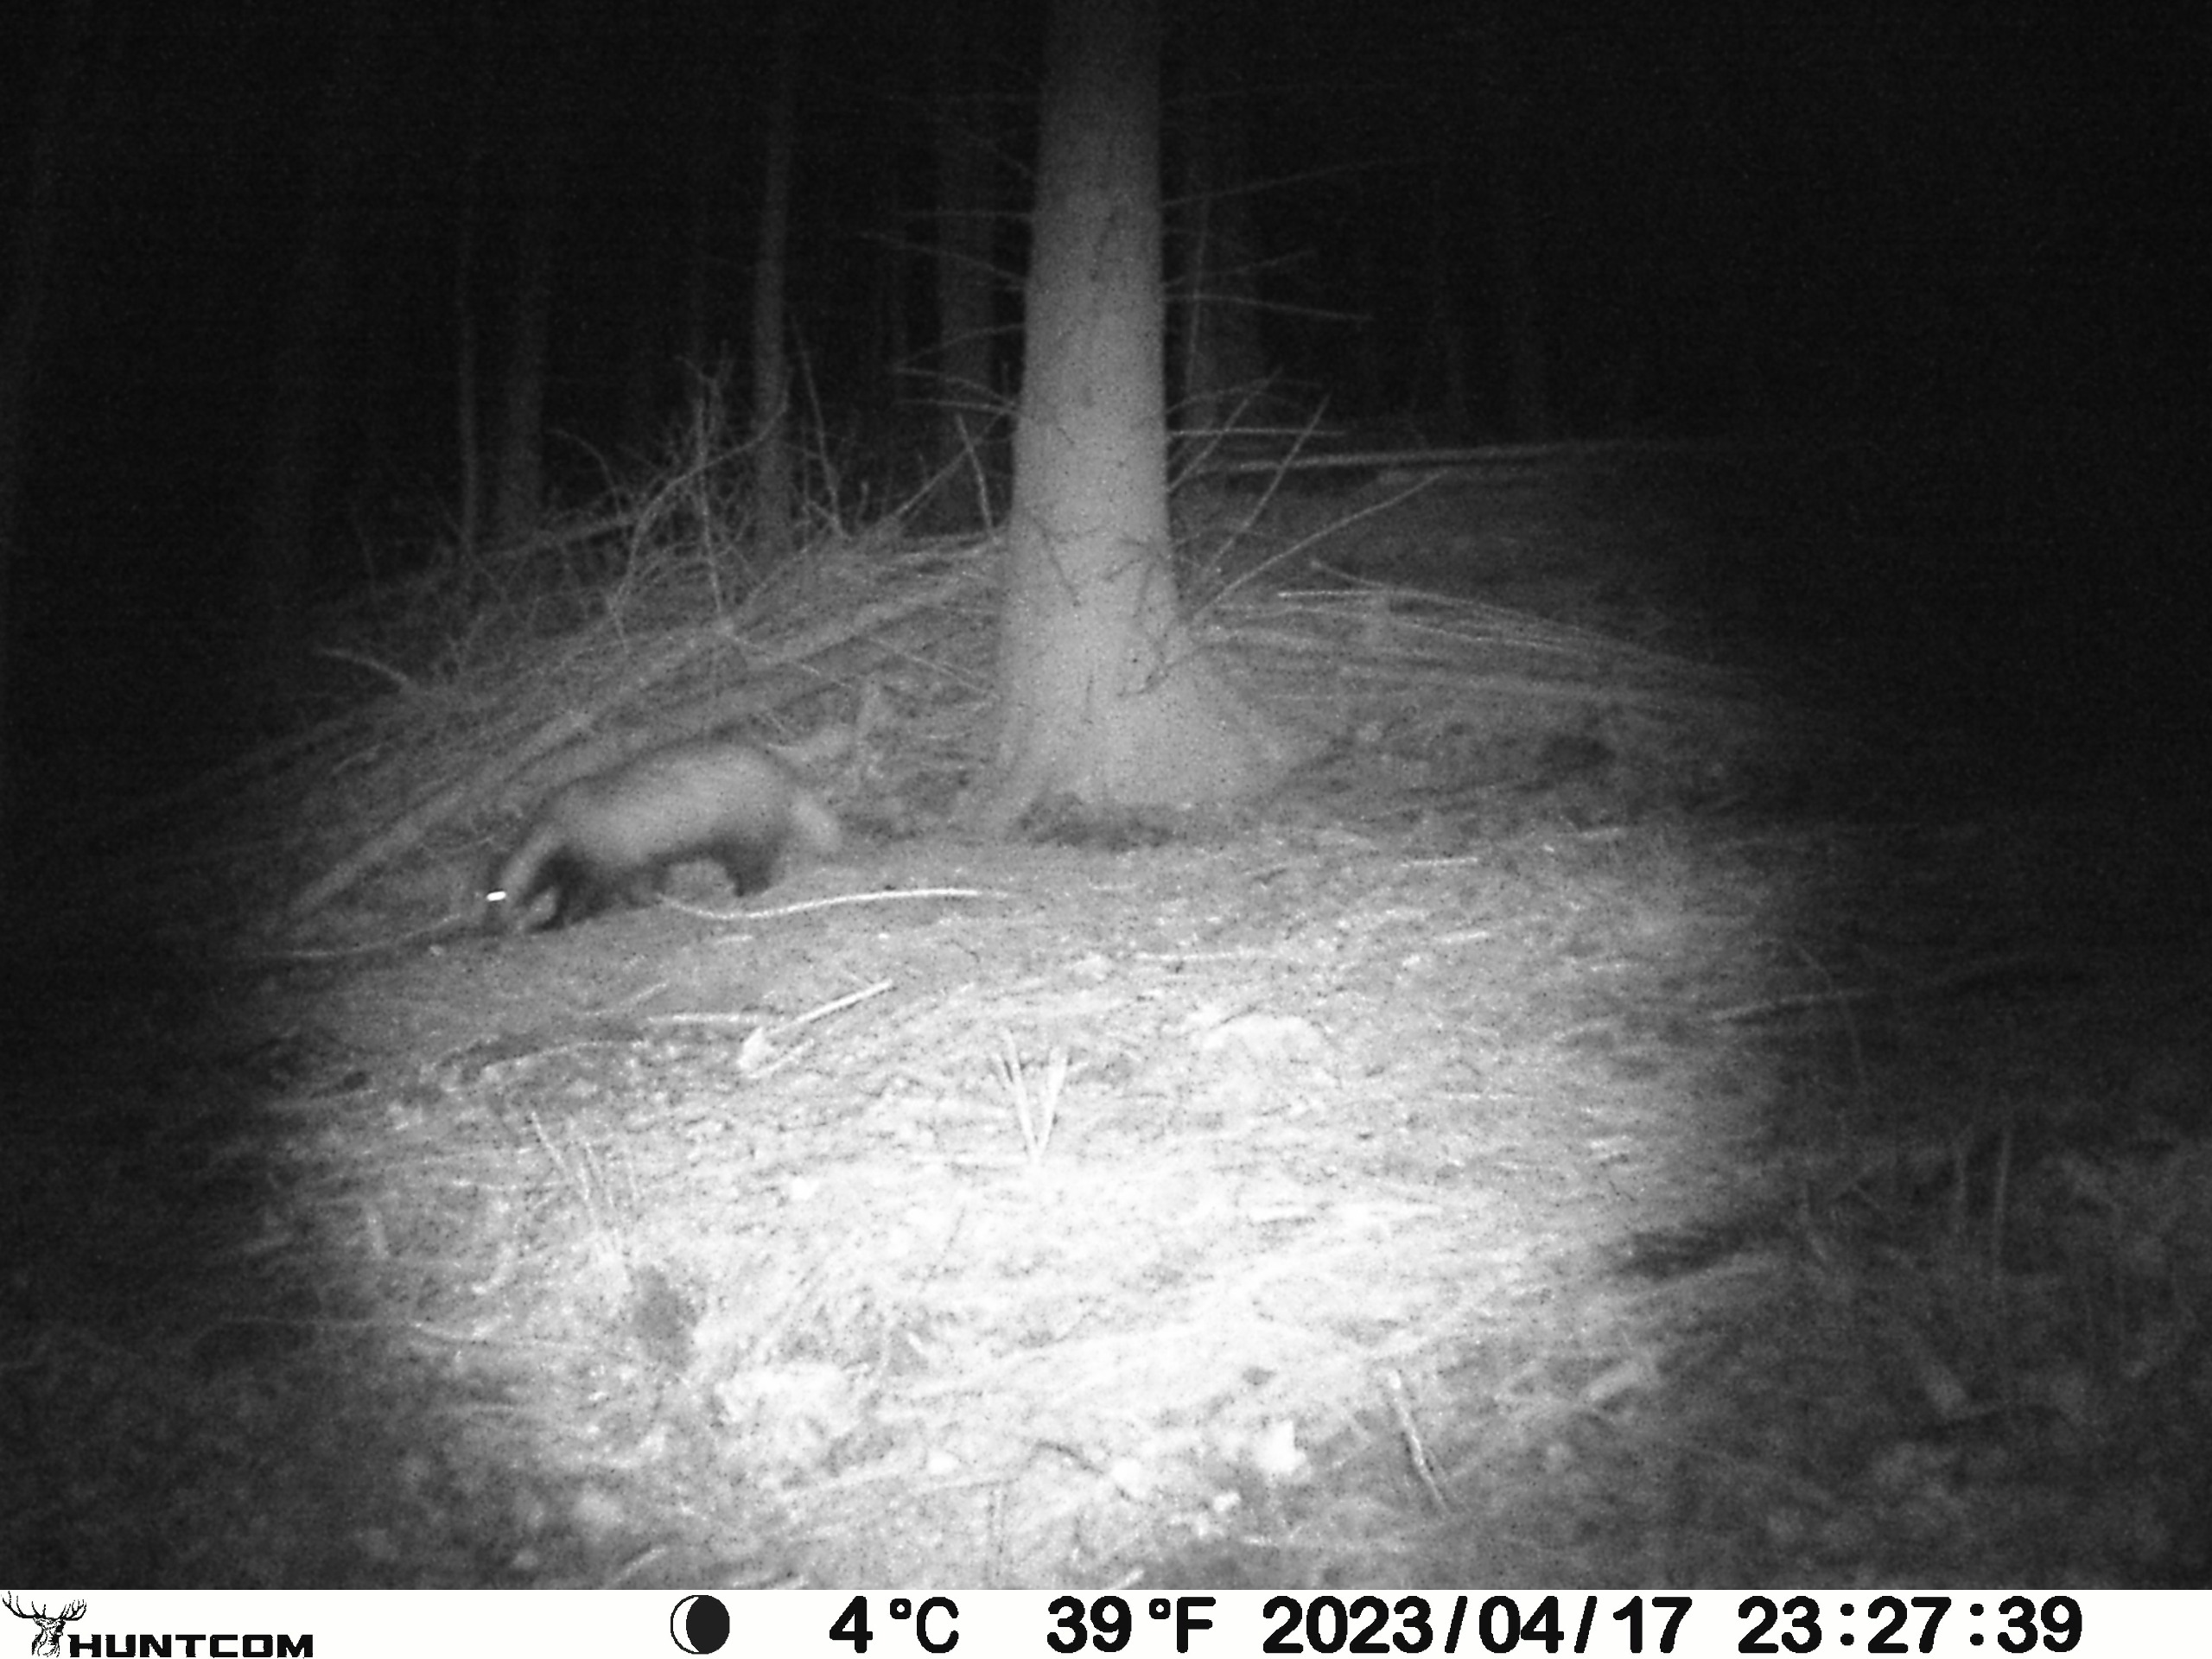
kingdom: Animalia
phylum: Chordata
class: Mammalia
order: Carnivora
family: Mustelidae
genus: Meles
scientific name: Meles meles
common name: Grævling
